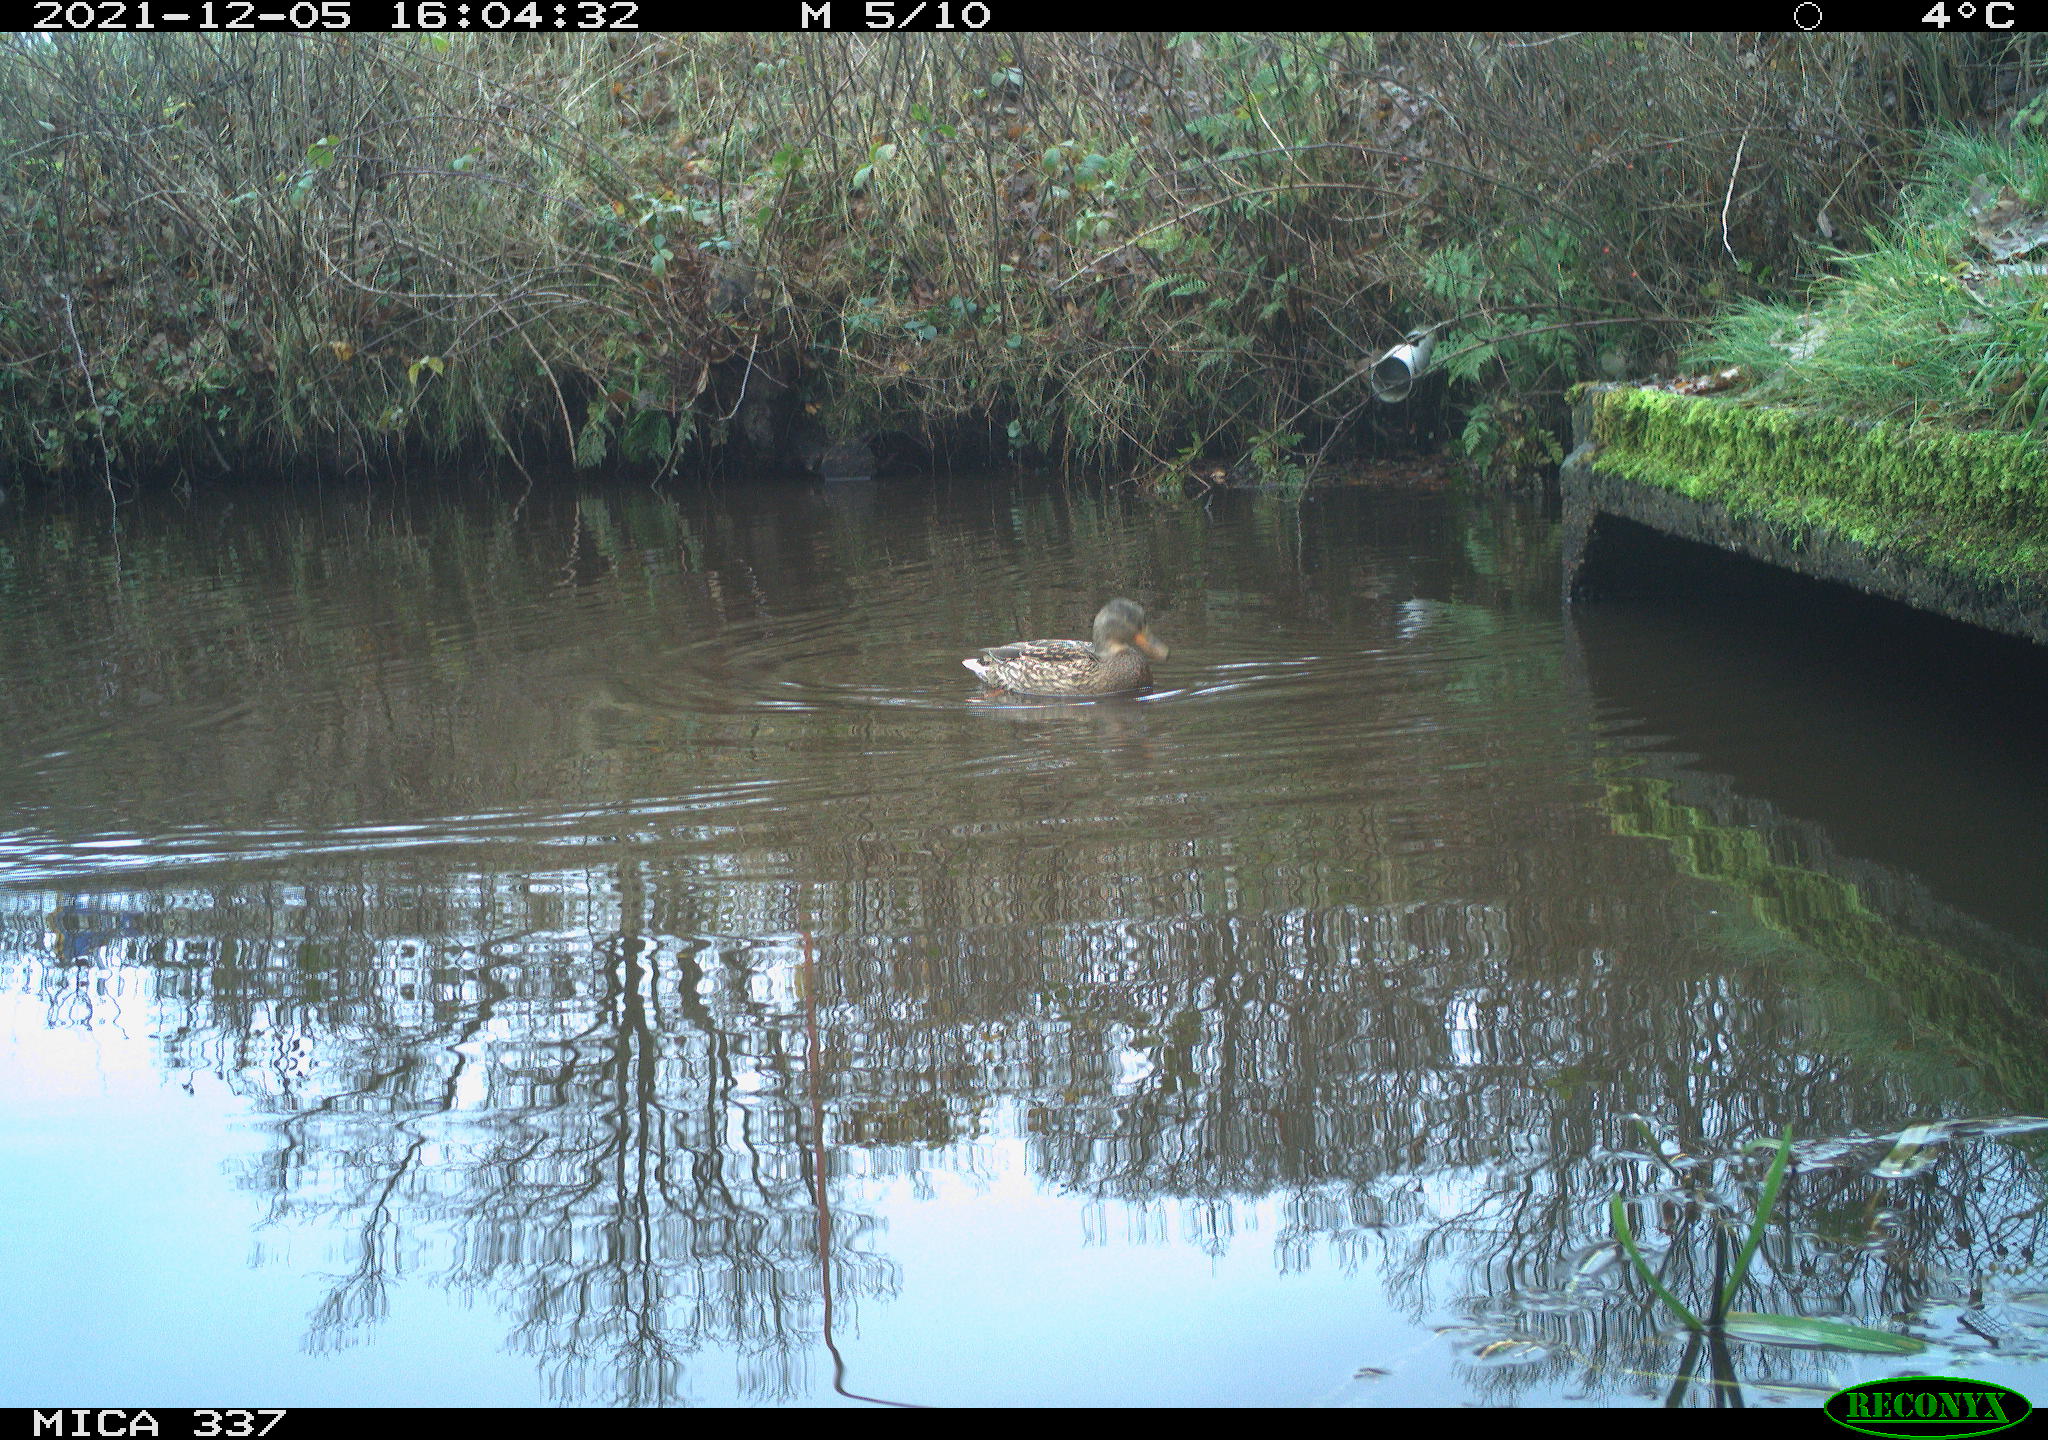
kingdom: Animalia
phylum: Chordata
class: Aves
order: Anseriformes
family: Anatidae
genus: Anas
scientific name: Anas platyrhynchos
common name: Mallard
